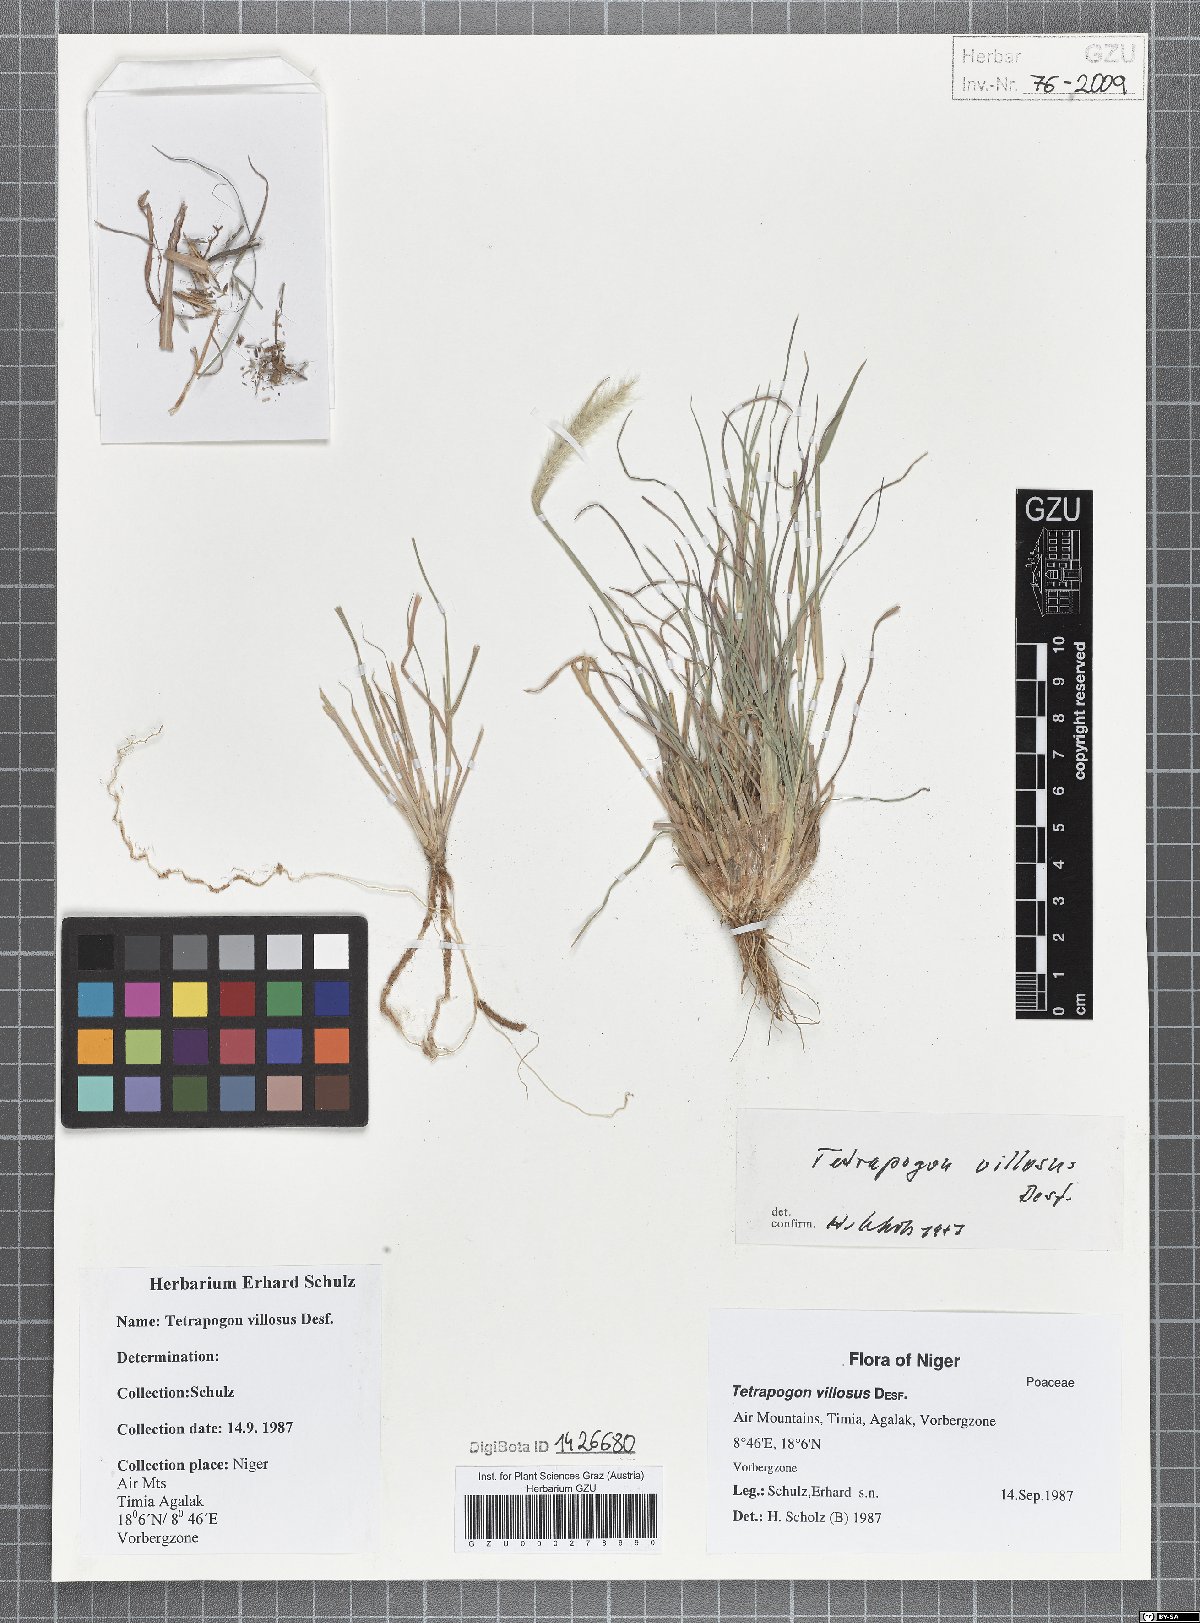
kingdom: Plantae
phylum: Tracheophyta
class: Liliopsida
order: Poales
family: Poaceae
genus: Tetrapogon
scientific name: Tetrapogon villosus
